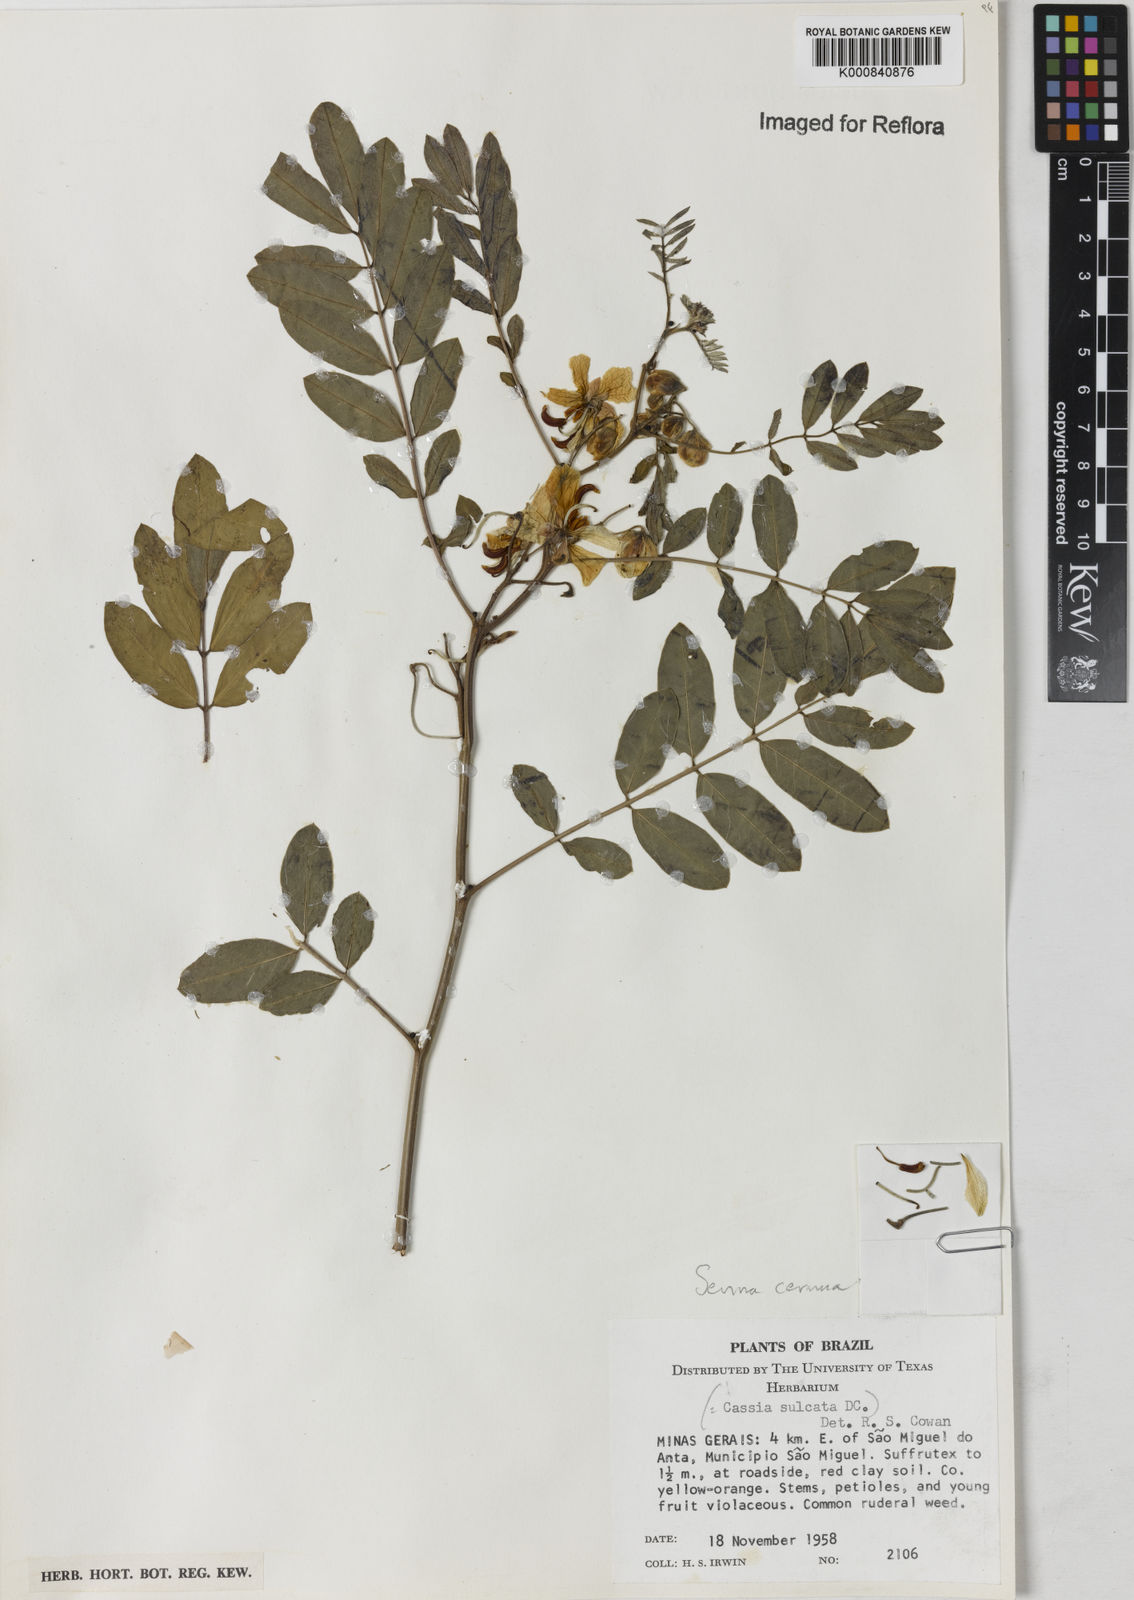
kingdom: Plantae
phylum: Tracheophyta
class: Magnoliopsida
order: Fabales
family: Fabaceae
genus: Senna
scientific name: Senna cernua
